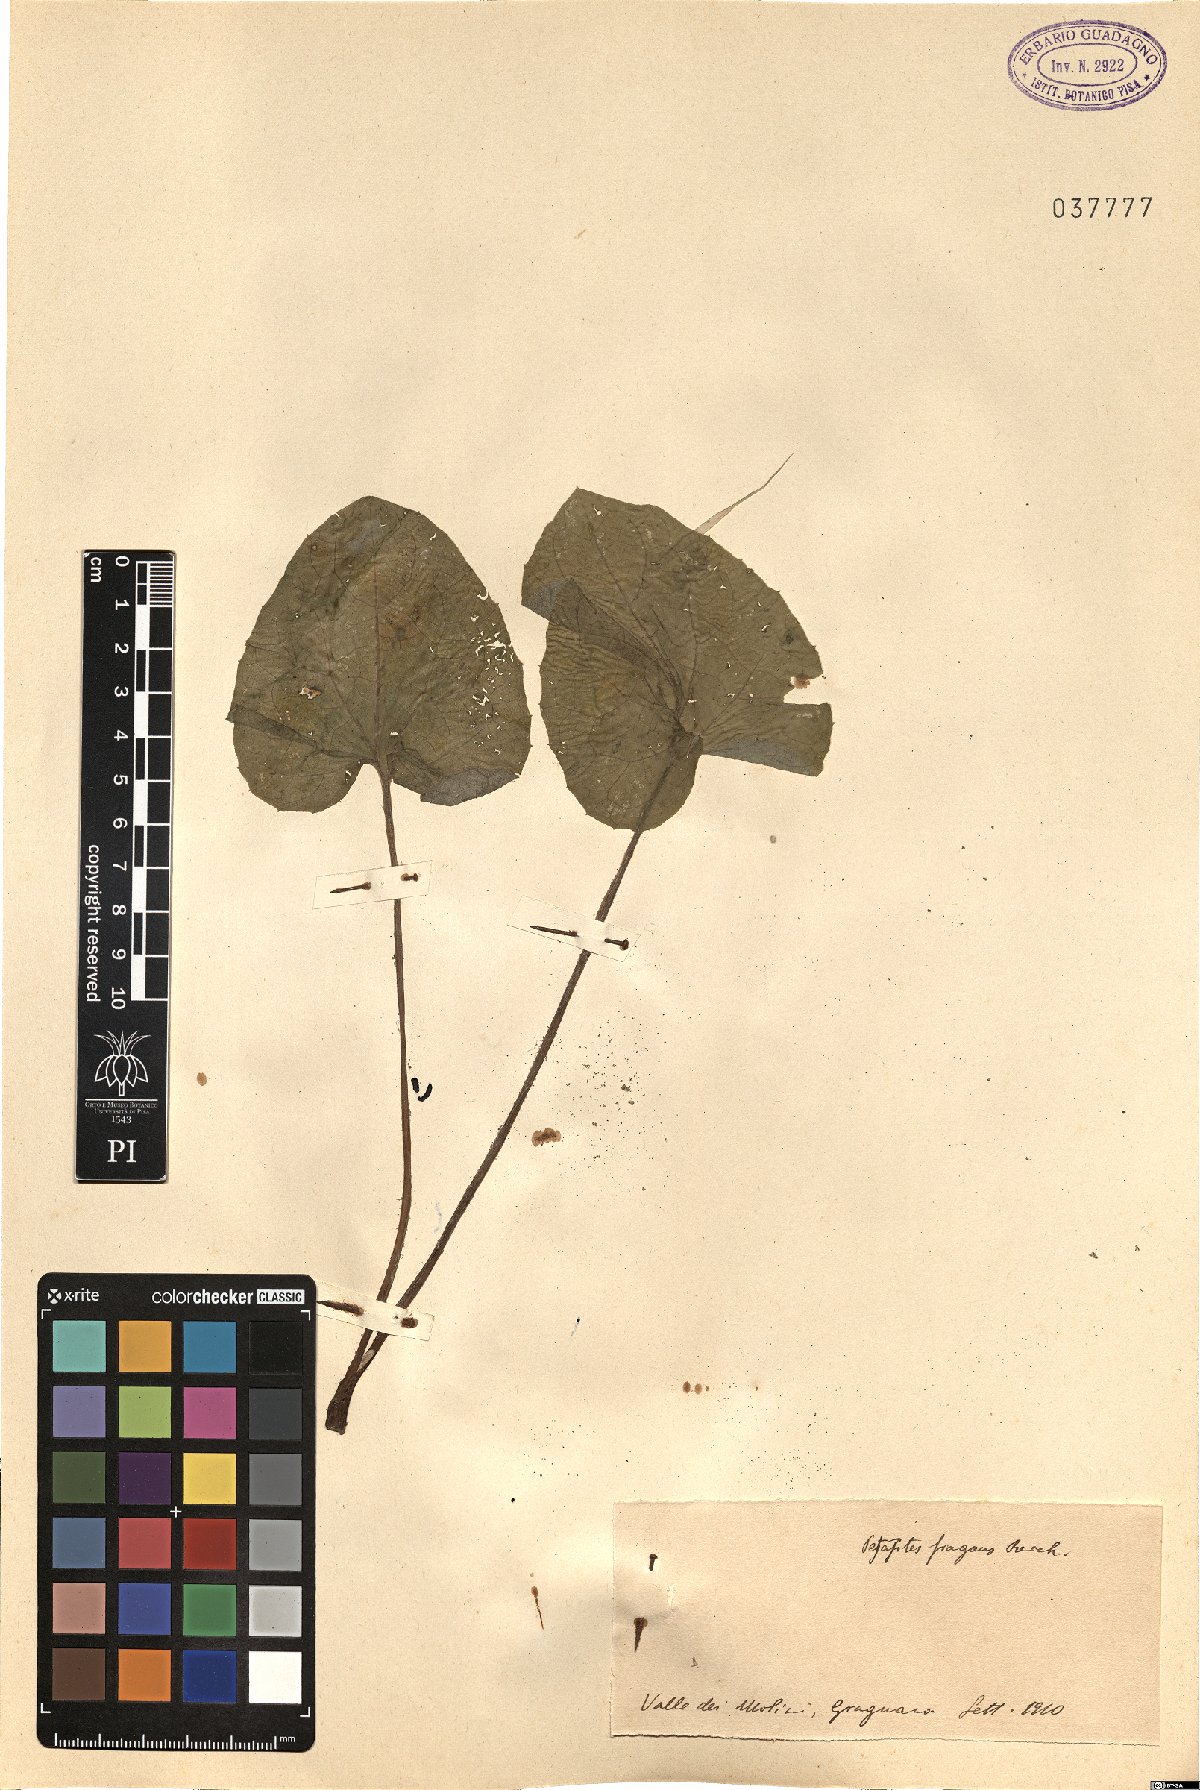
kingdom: Plantae
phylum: Tracheophyta
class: Magnoliopsida
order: Asterales
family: Asteraceae
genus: Petasites
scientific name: Petasites pyrenaicus
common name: Winter heliotrope
